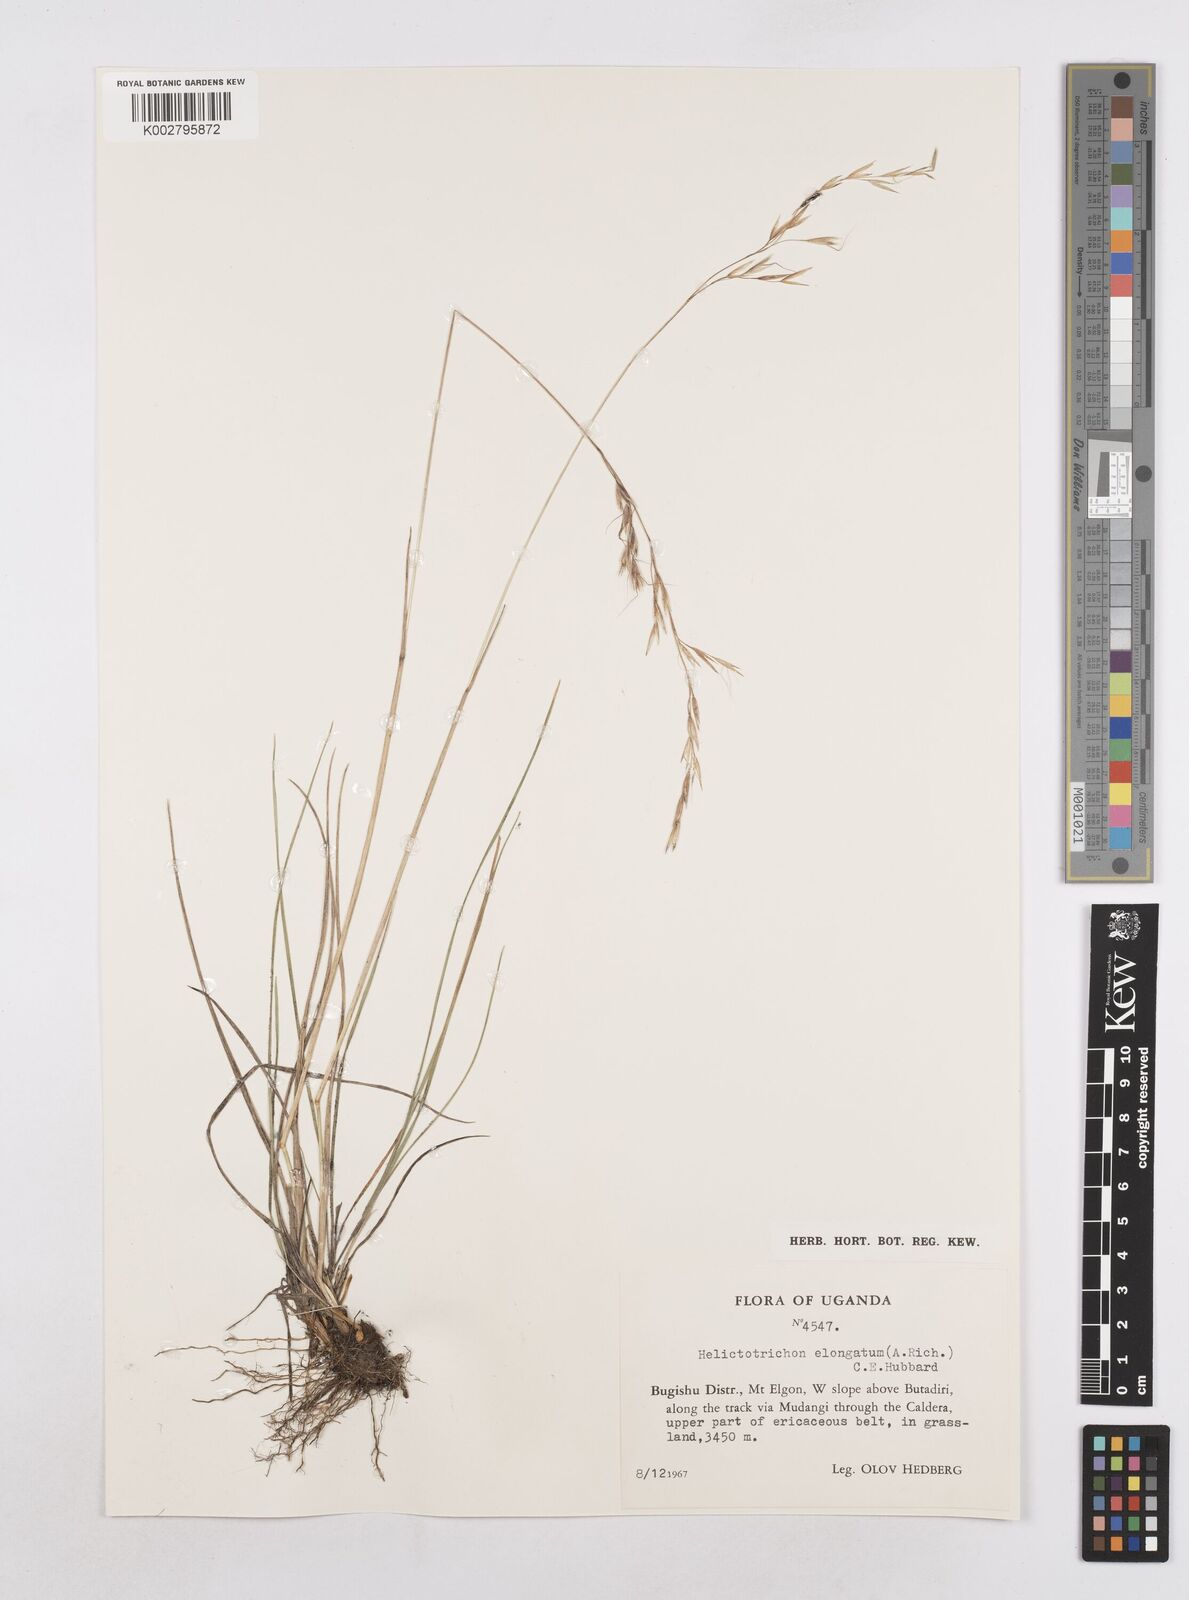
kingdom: Plantae
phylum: Tracheophyta
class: Liliopsida
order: Poales
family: Poaceae
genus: Trisetopsis
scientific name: Trisetopsis elongata
